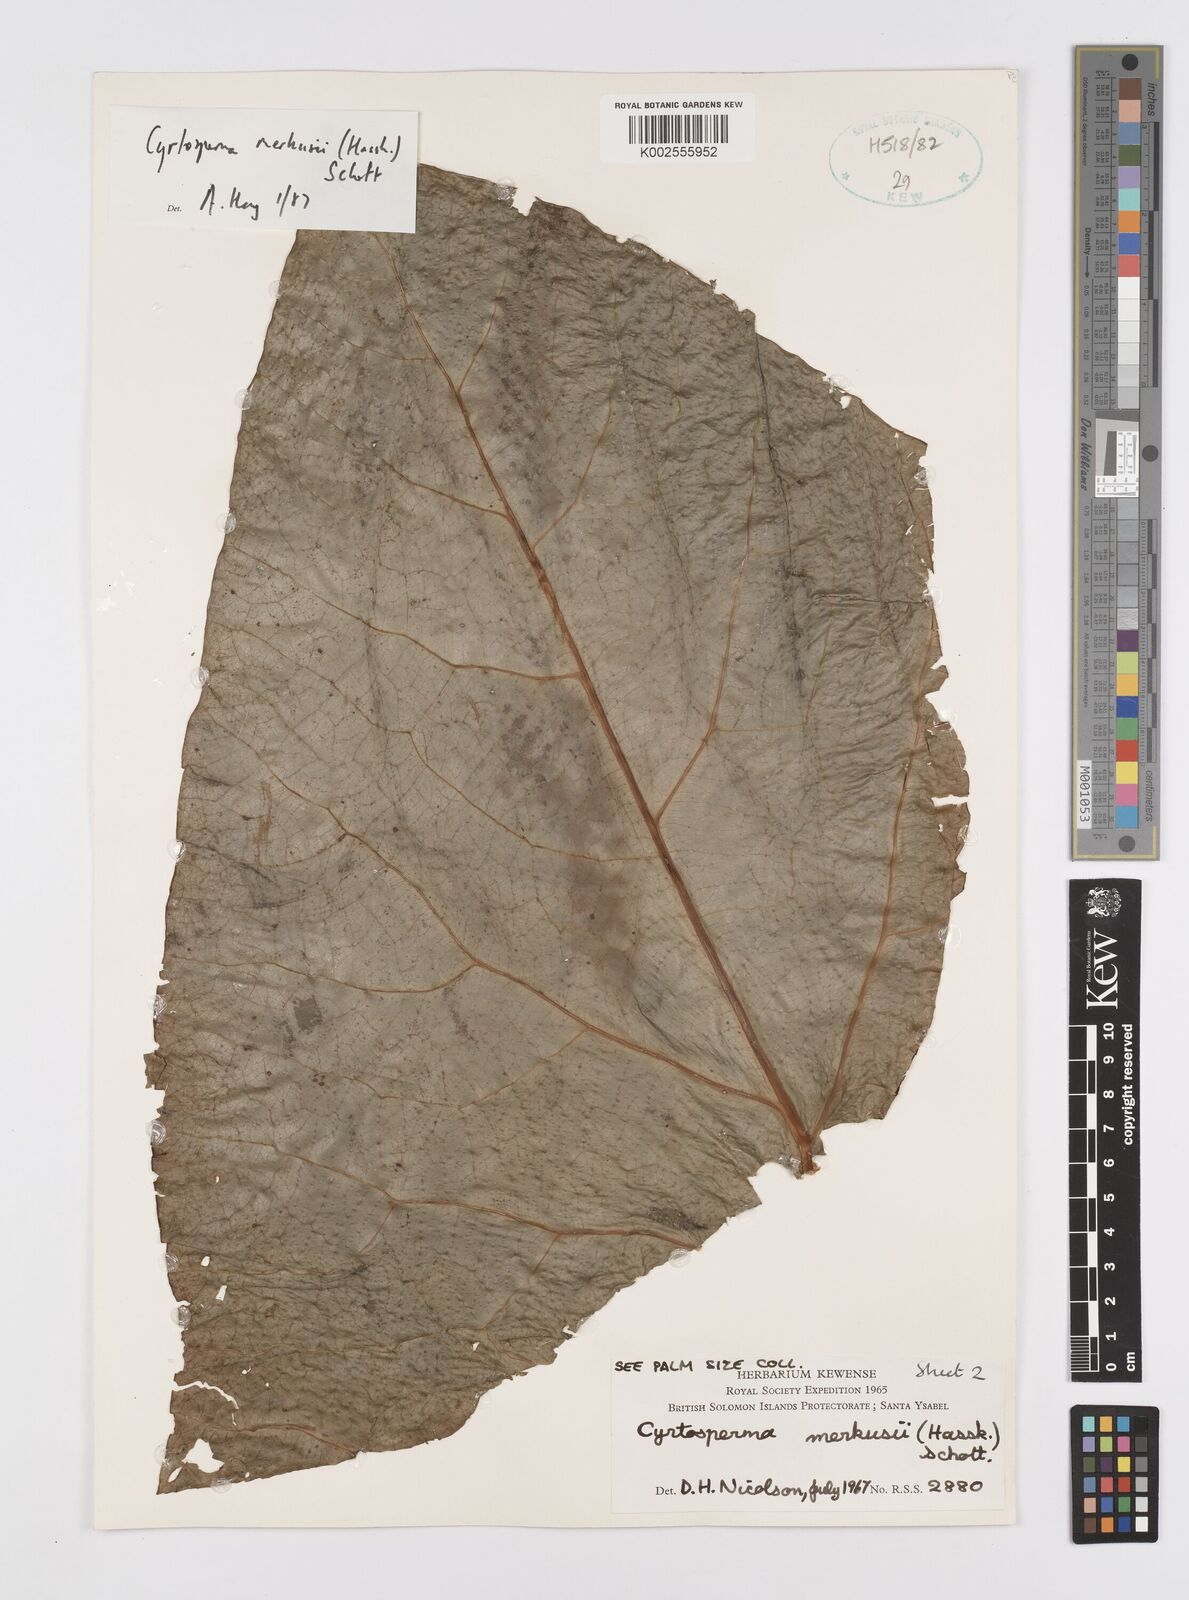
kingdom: Plantae
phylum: Tracheophyta
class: Liliopsida
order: Alismatales
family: Araceae
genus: Cyrtosperma
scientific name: Cyrtosperma merkusii
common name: Giant swamp-taro
